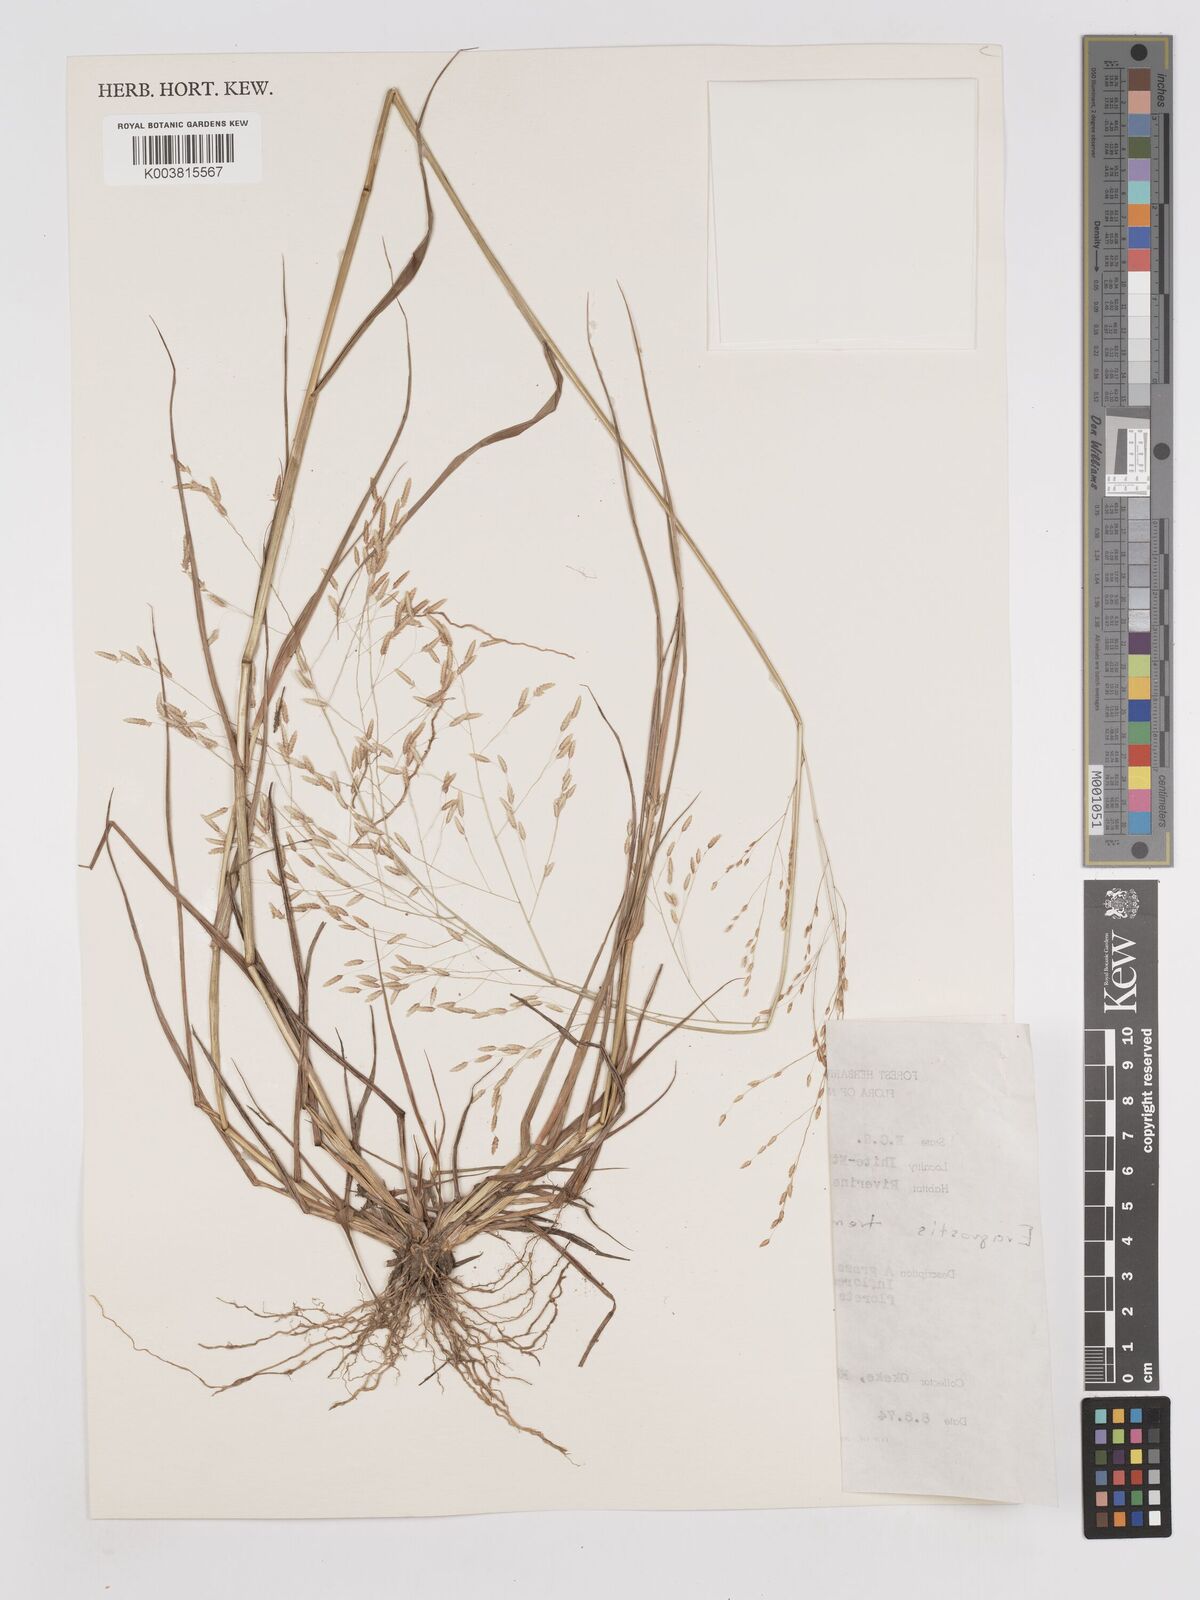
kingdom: Plantae
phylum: Tracheophyta
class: Liliopsida
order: Poales
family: Poaceae
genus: Eragrostis
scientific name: Eragrostis tremula
